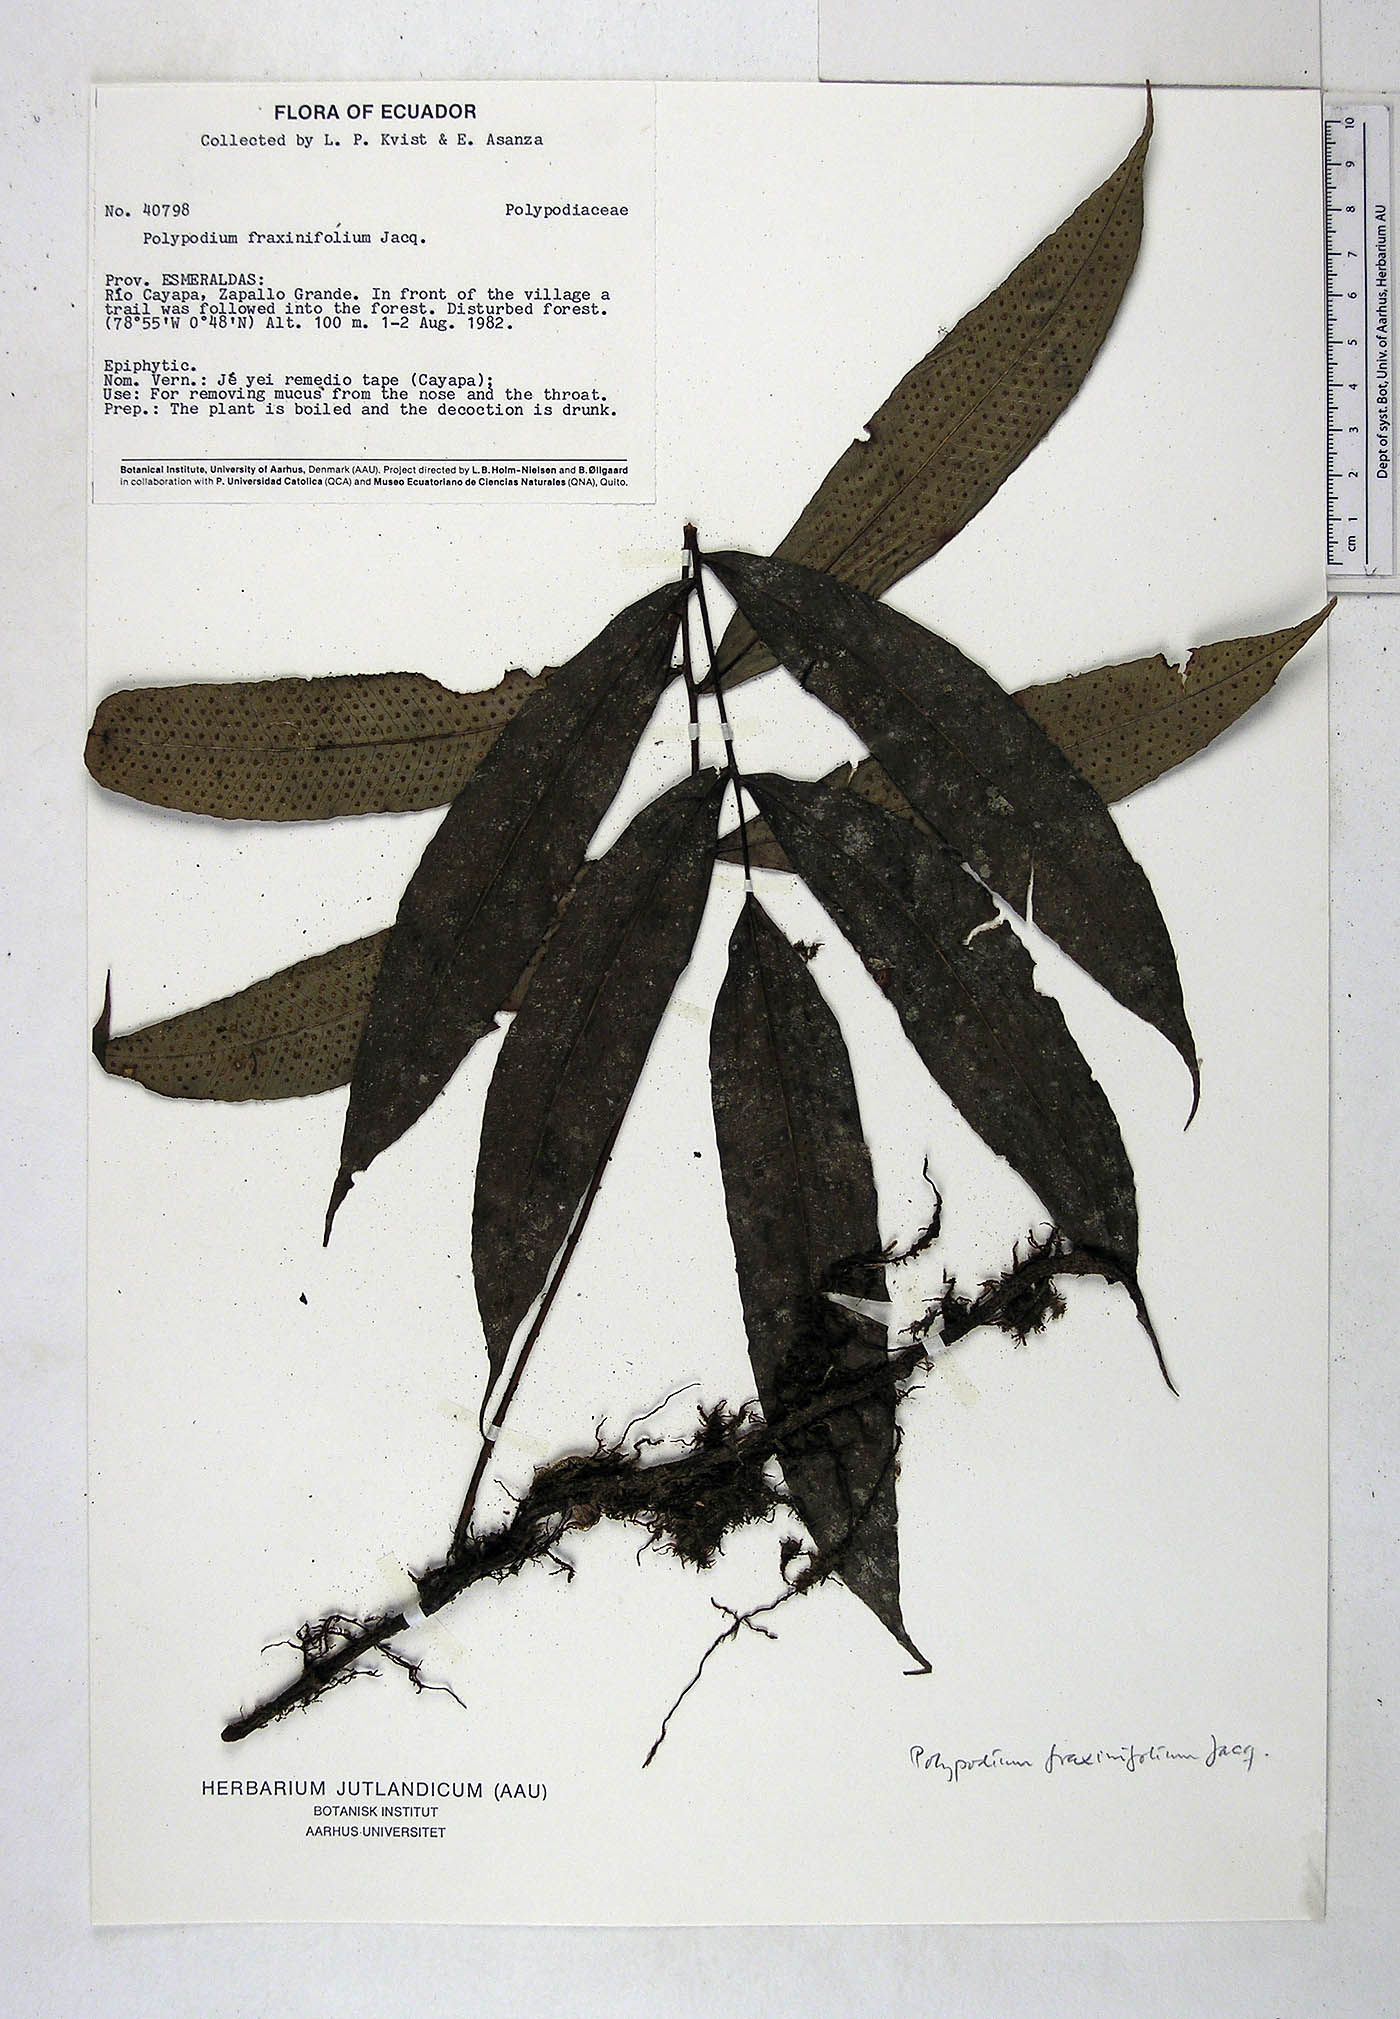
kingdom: Plantae
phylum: Tracheophyta
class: Polypodiopsida
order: Polypodiales
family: Polypodiaceae
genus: Serpocaulon
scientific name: Serpocaulon fraxinifolium
